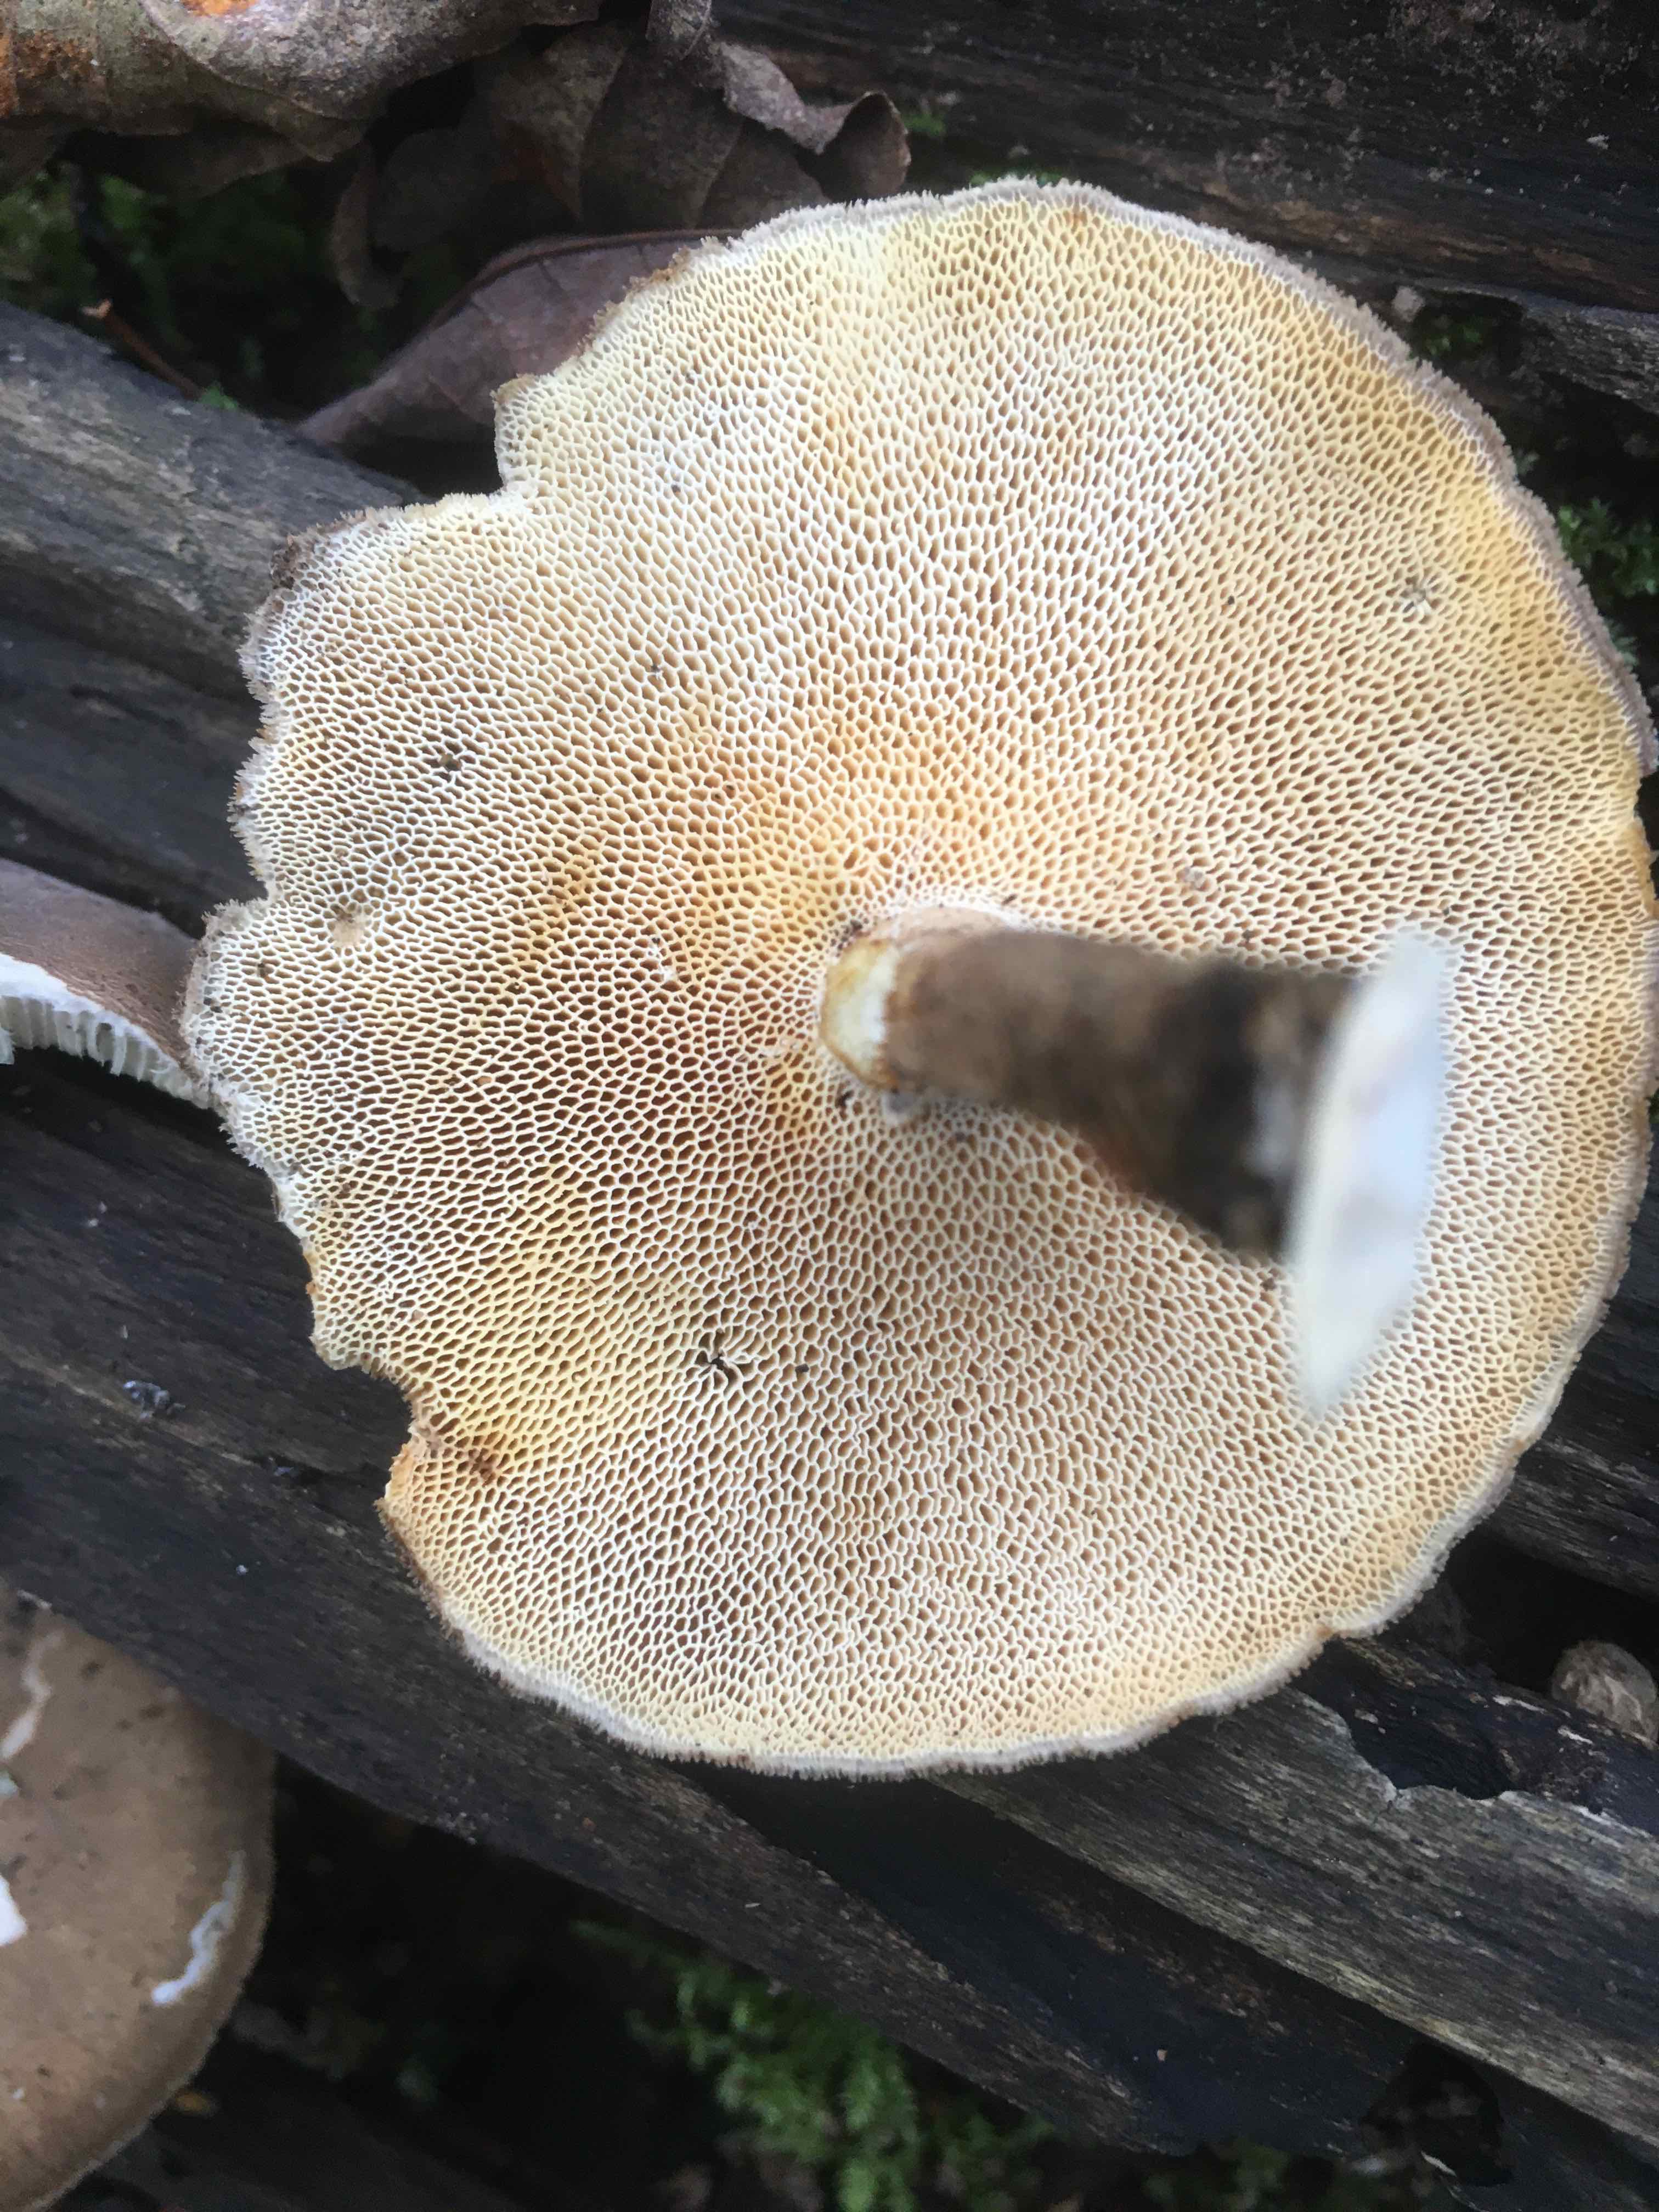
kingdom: Fungi
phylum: Basidiomycota
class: Agaricomycetes
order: Polyporales
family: Polyporaceae
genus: Lentinus
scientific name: Lentinus brumalis
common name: vinter-stilkporesvamp
